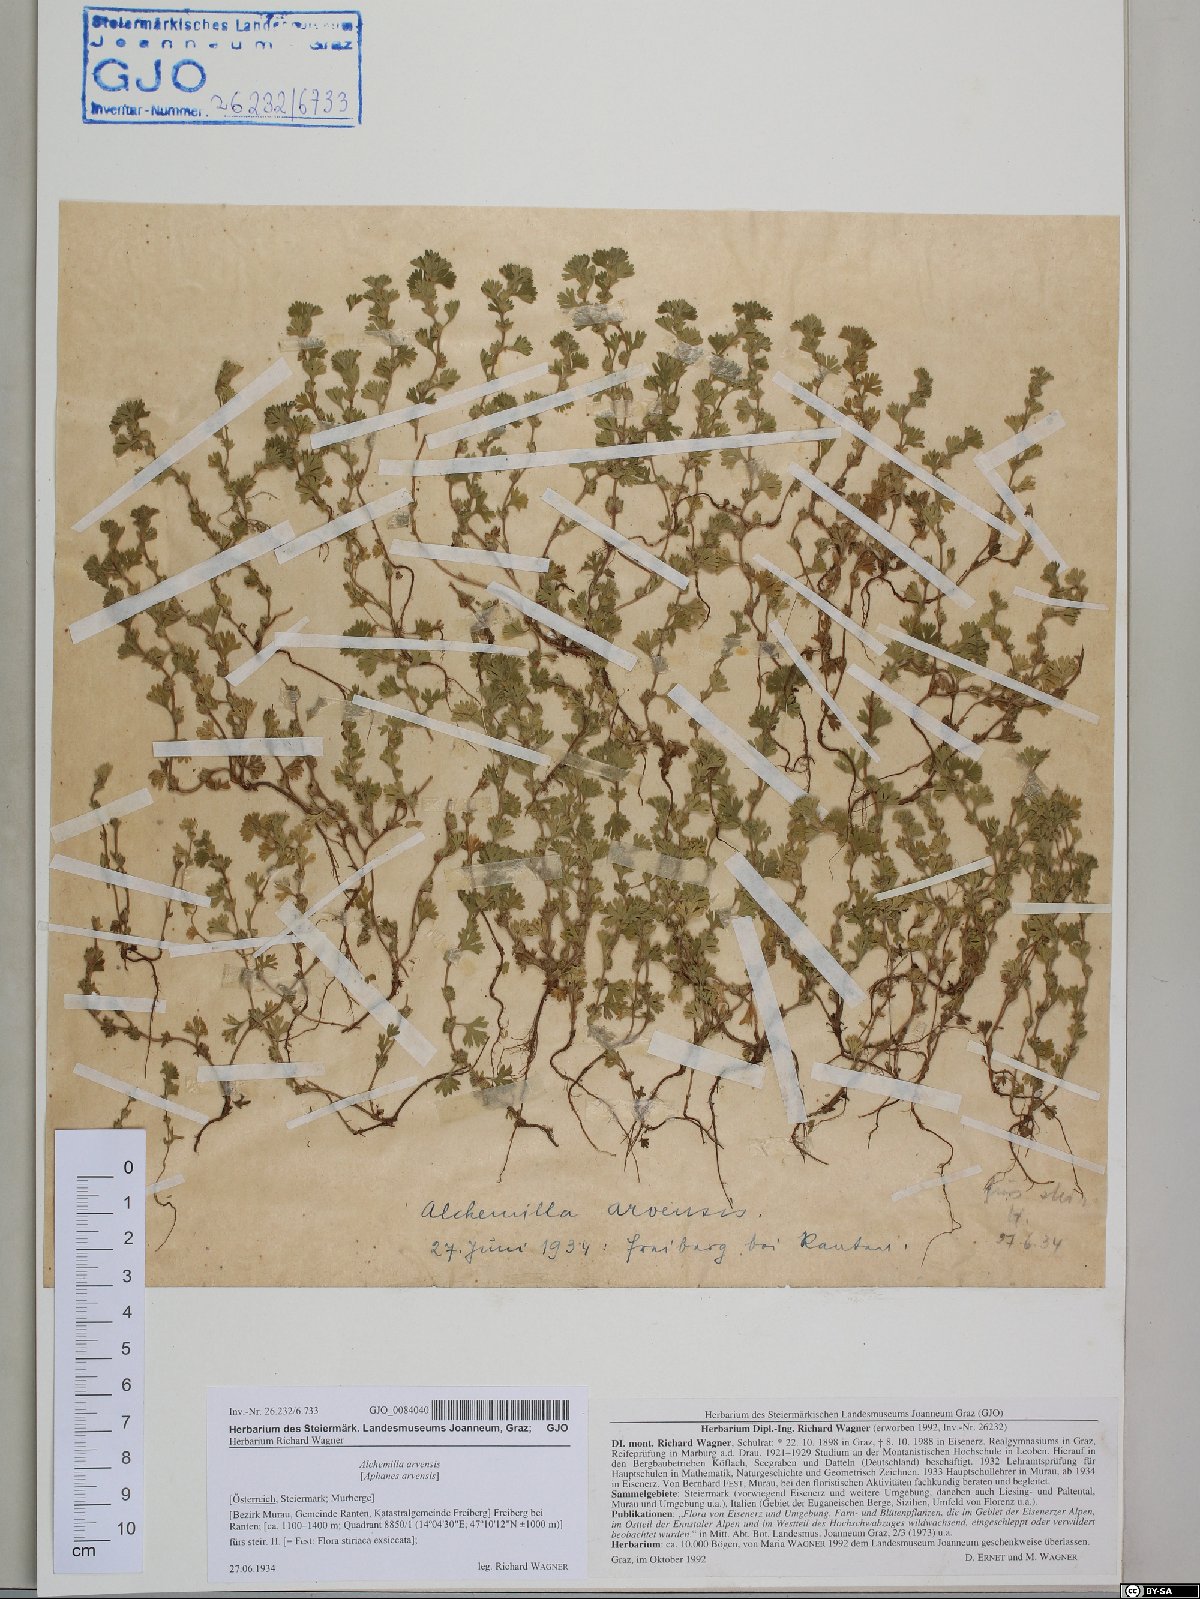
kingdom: Plantae
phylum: Tracheophyta
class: Magnoliopsida
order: Rosales
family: Rosaceae
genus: Aphanes
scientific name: Aphanes arvensis
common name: Parsley-piert
